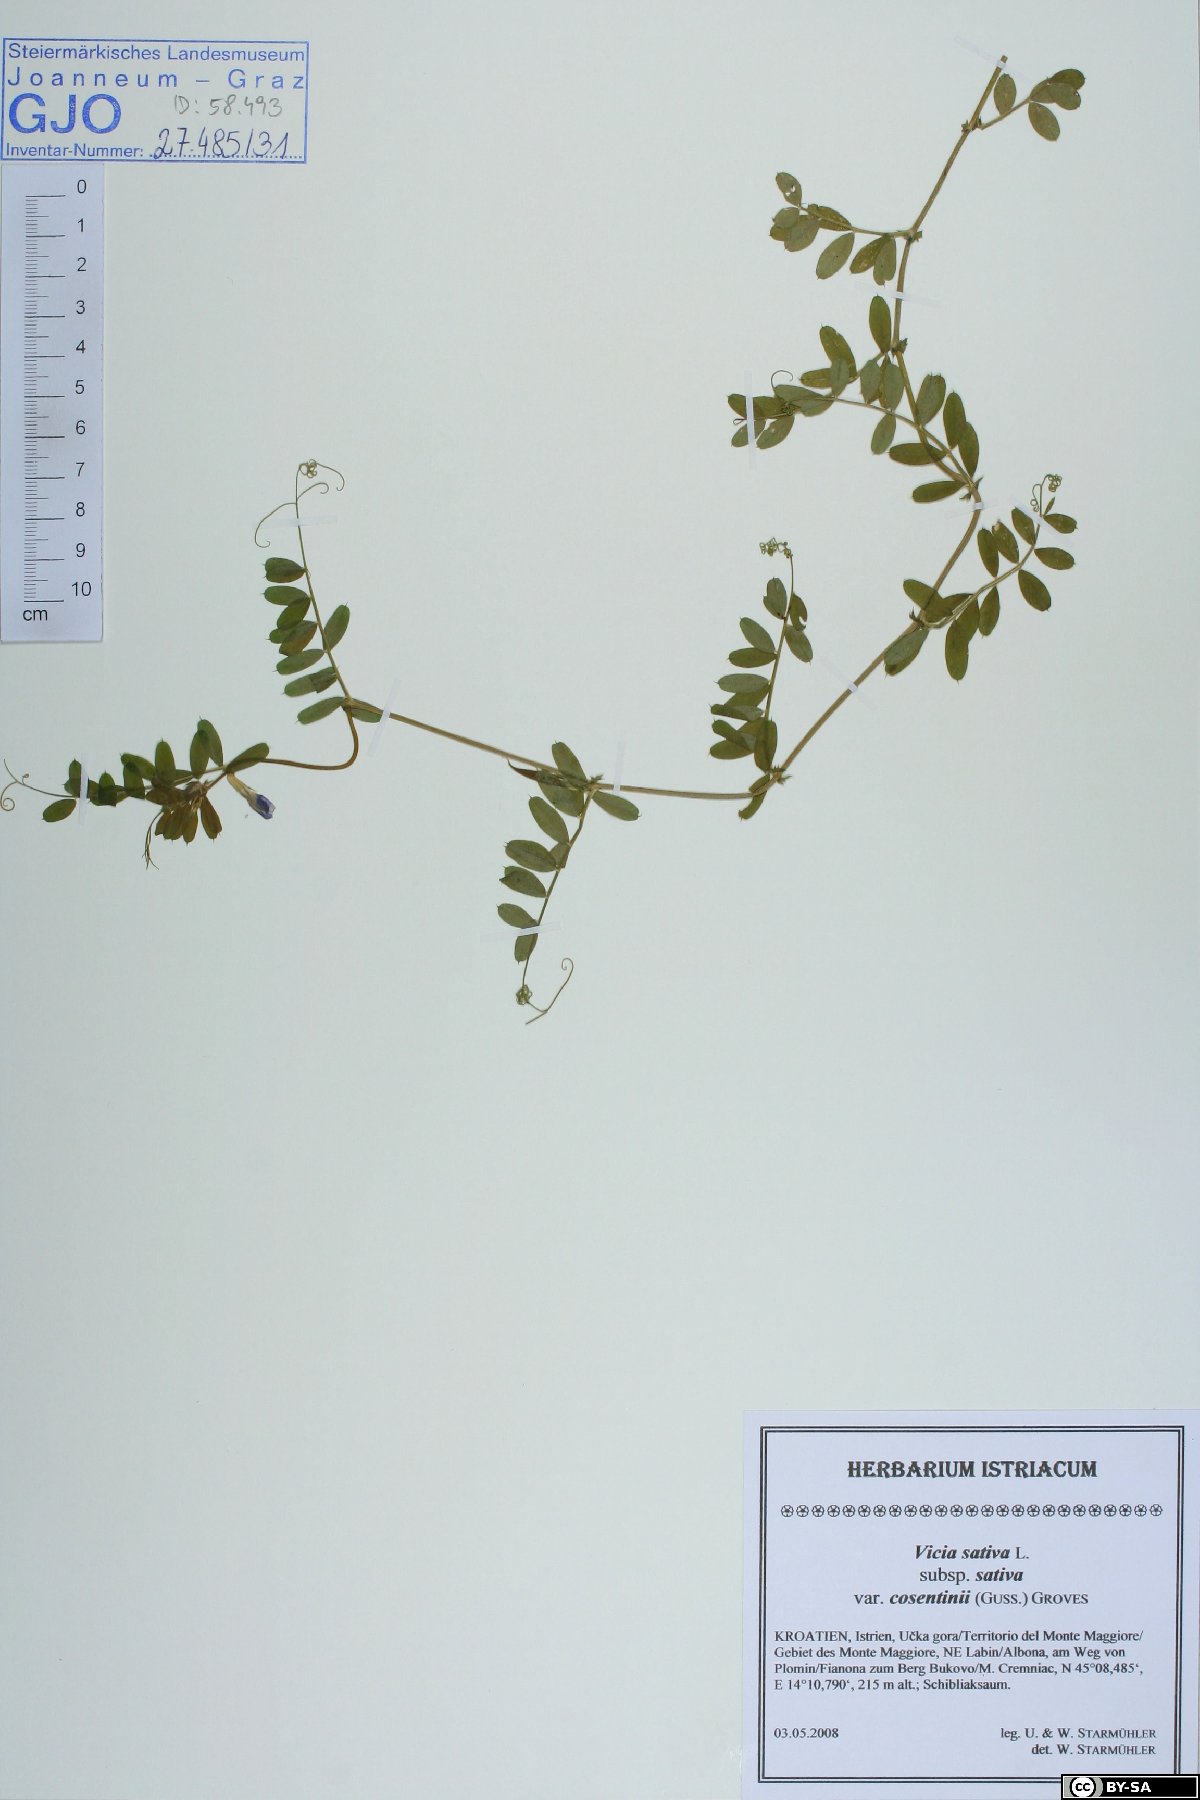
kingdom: Plantae
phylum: Tracheophyta
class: Magnoliopsida
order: Fabales
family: Fabaceae
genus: Vicia
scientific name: Vicia sativa
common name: Garden vetch
